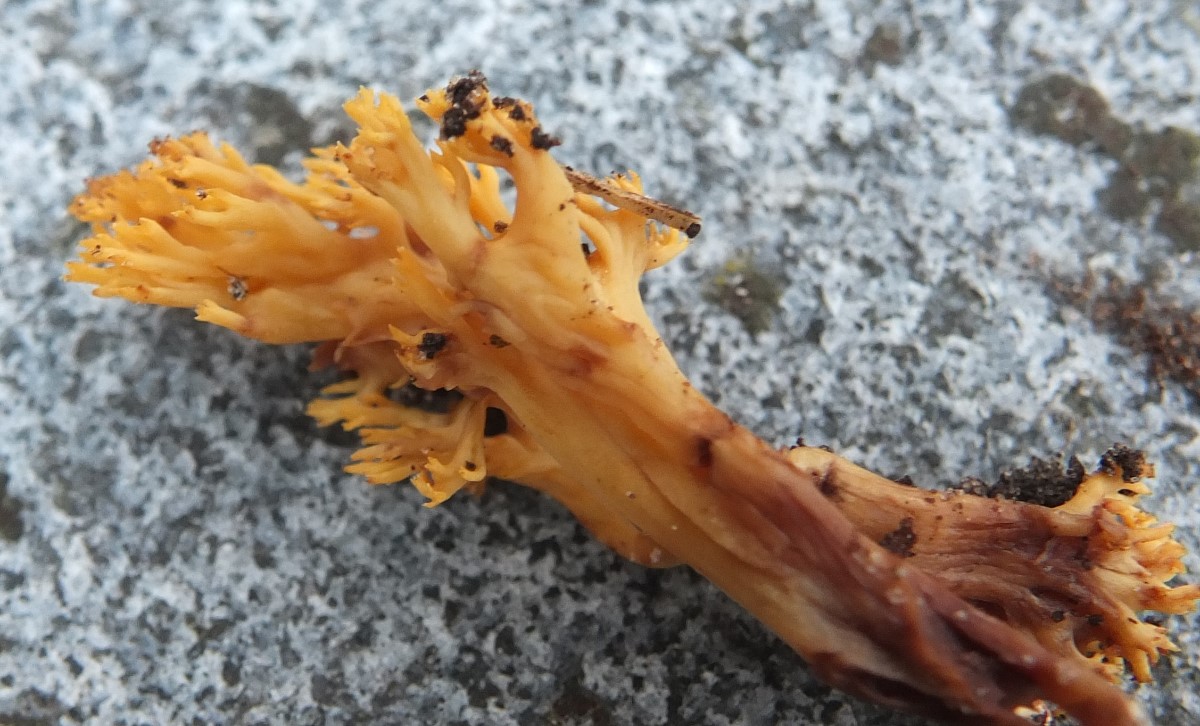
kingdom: Fungi
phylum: Basidiomycota
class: Agaricomycetes
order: Gomphales
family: Gomphaceae
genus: Phaeoclavulina
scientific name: Phaeoclavulina decurrens
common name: krat-koralsvamp
